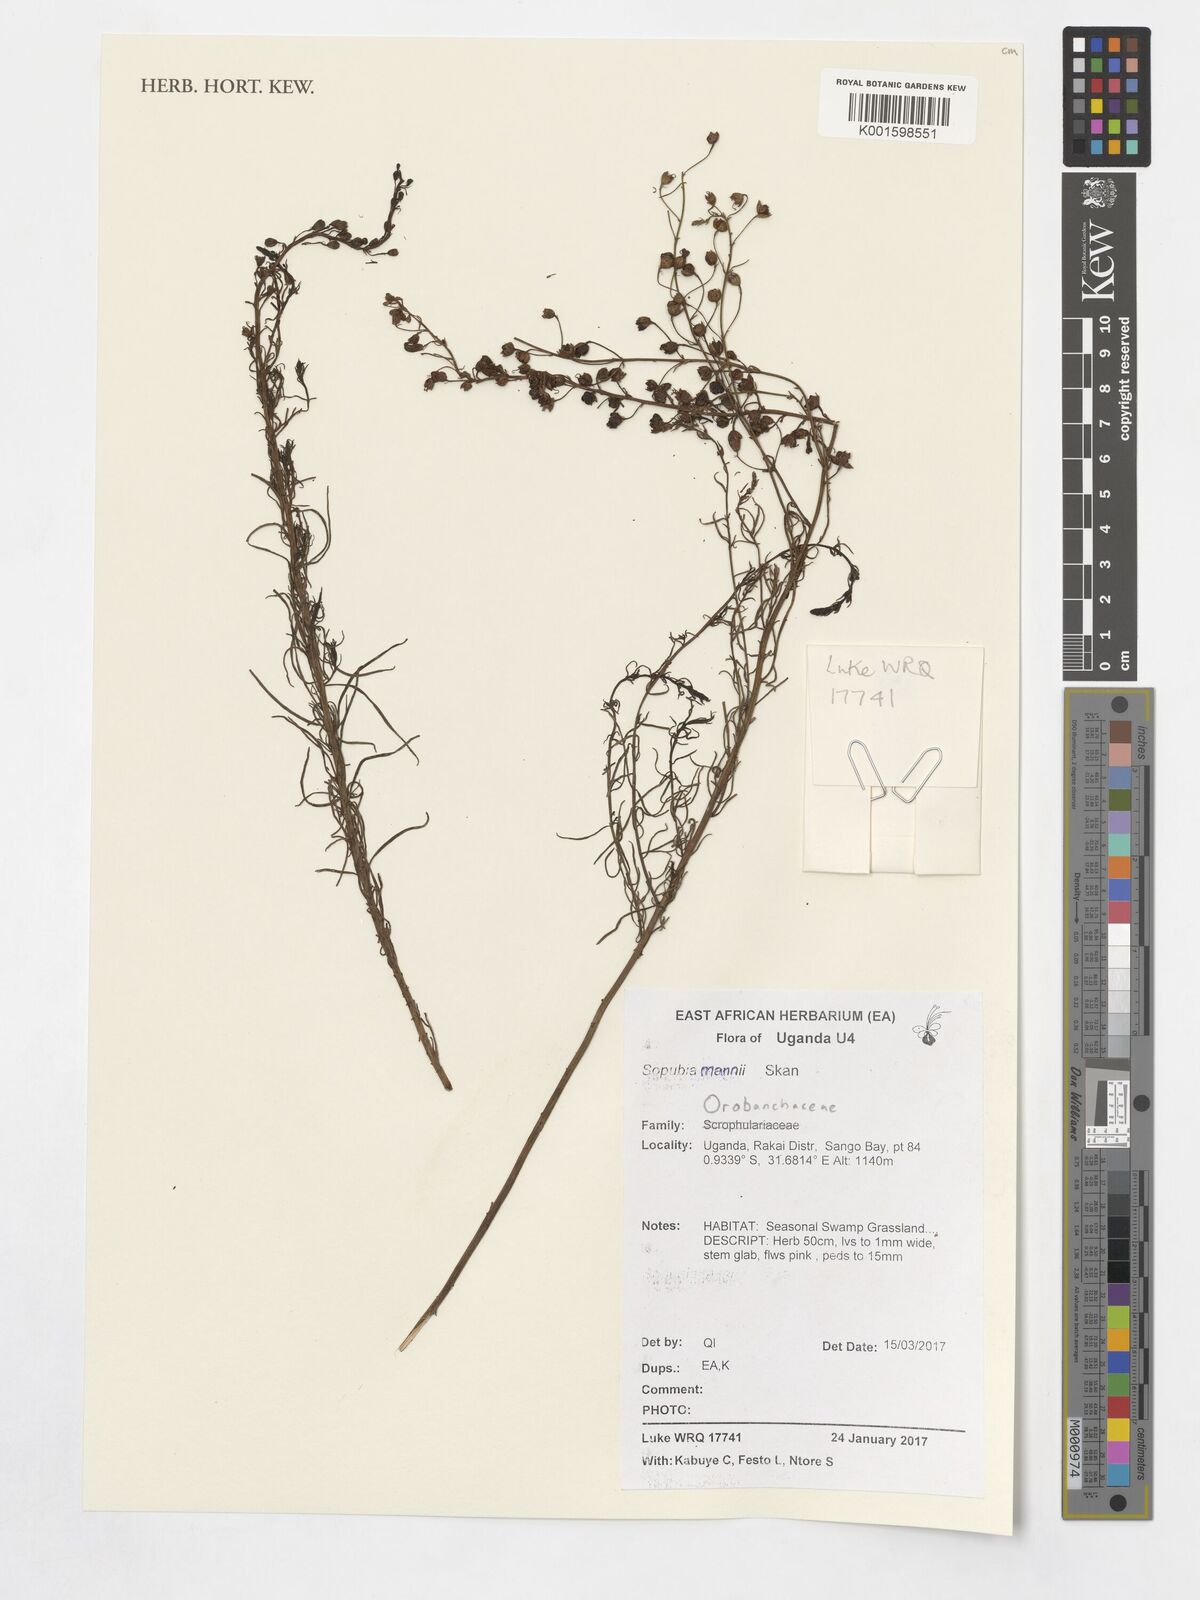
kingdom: Plantae
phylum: Tracheophyta
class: Magnoliopsida
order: Lamiales
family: Orobanchaceae
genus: Sopubia
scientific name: Sopubia mannii
